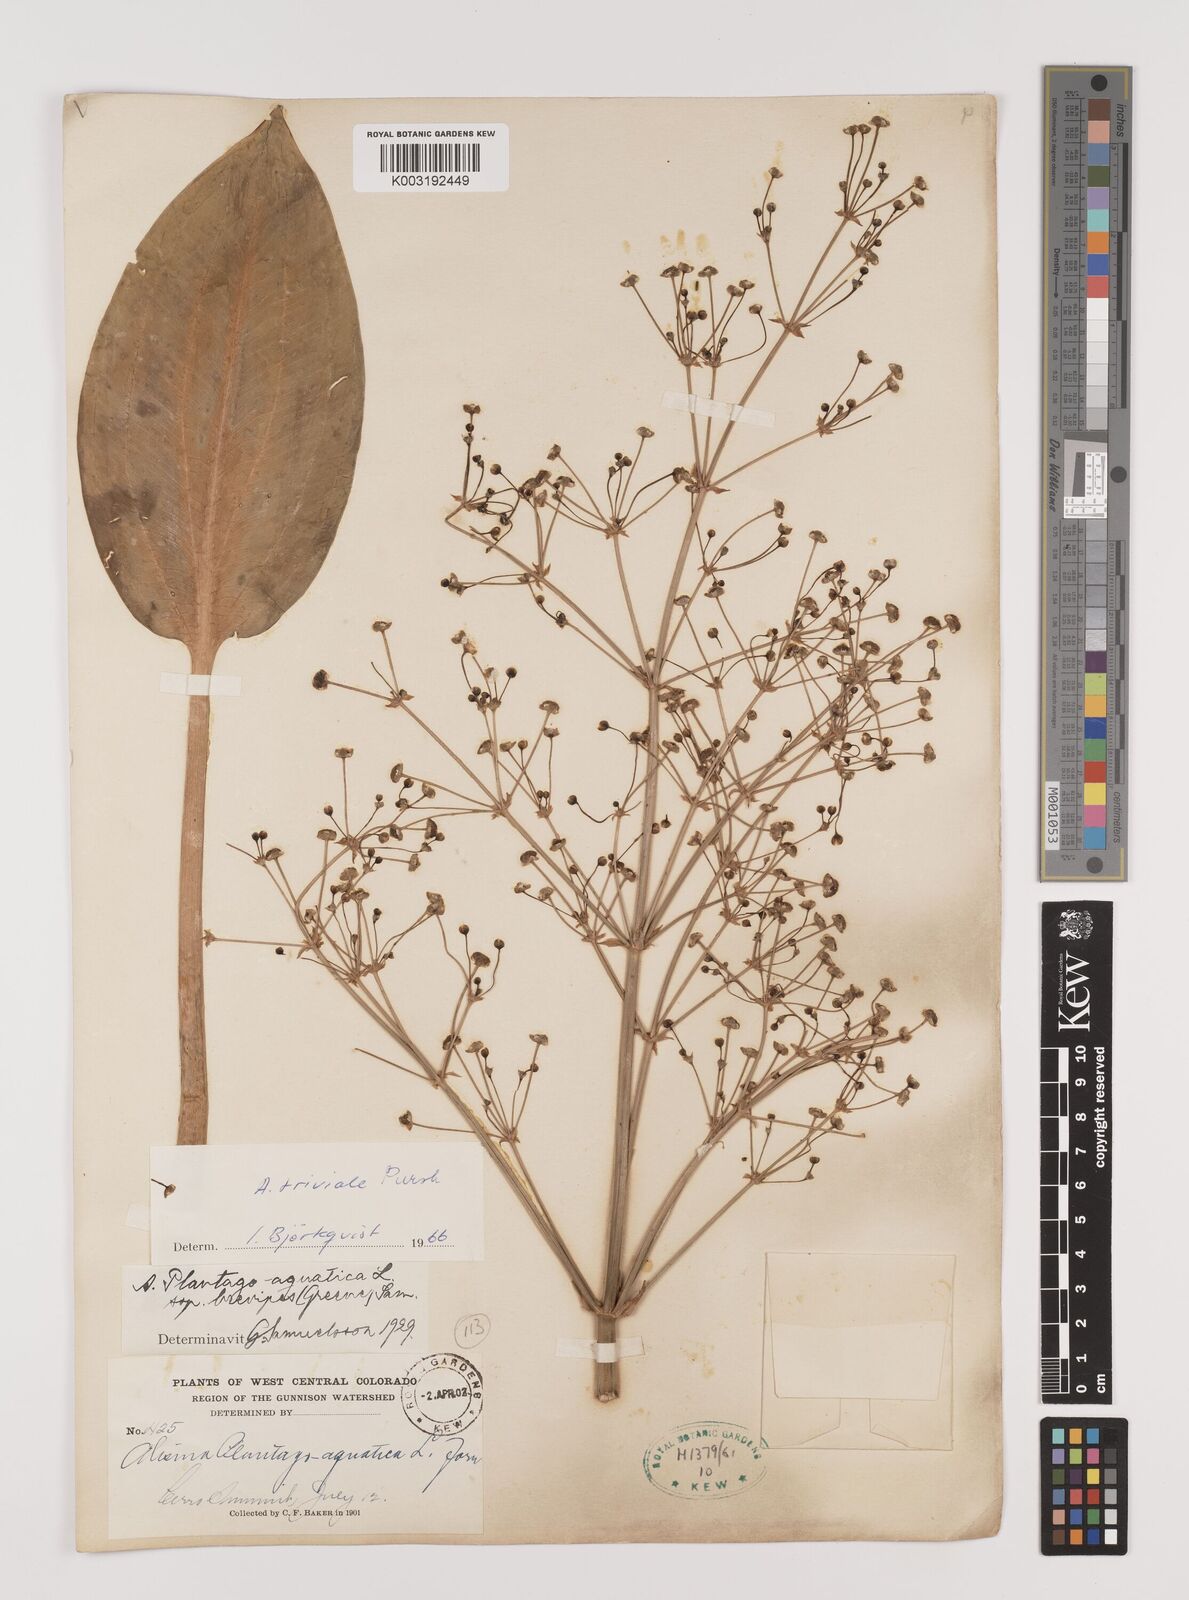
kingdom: Plantae
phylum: Tracheophyta
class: Liliopsida
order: Alismatales
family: Alismataceae
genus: Alisma
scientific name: Alisma triviale
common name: Northern water-plantain
